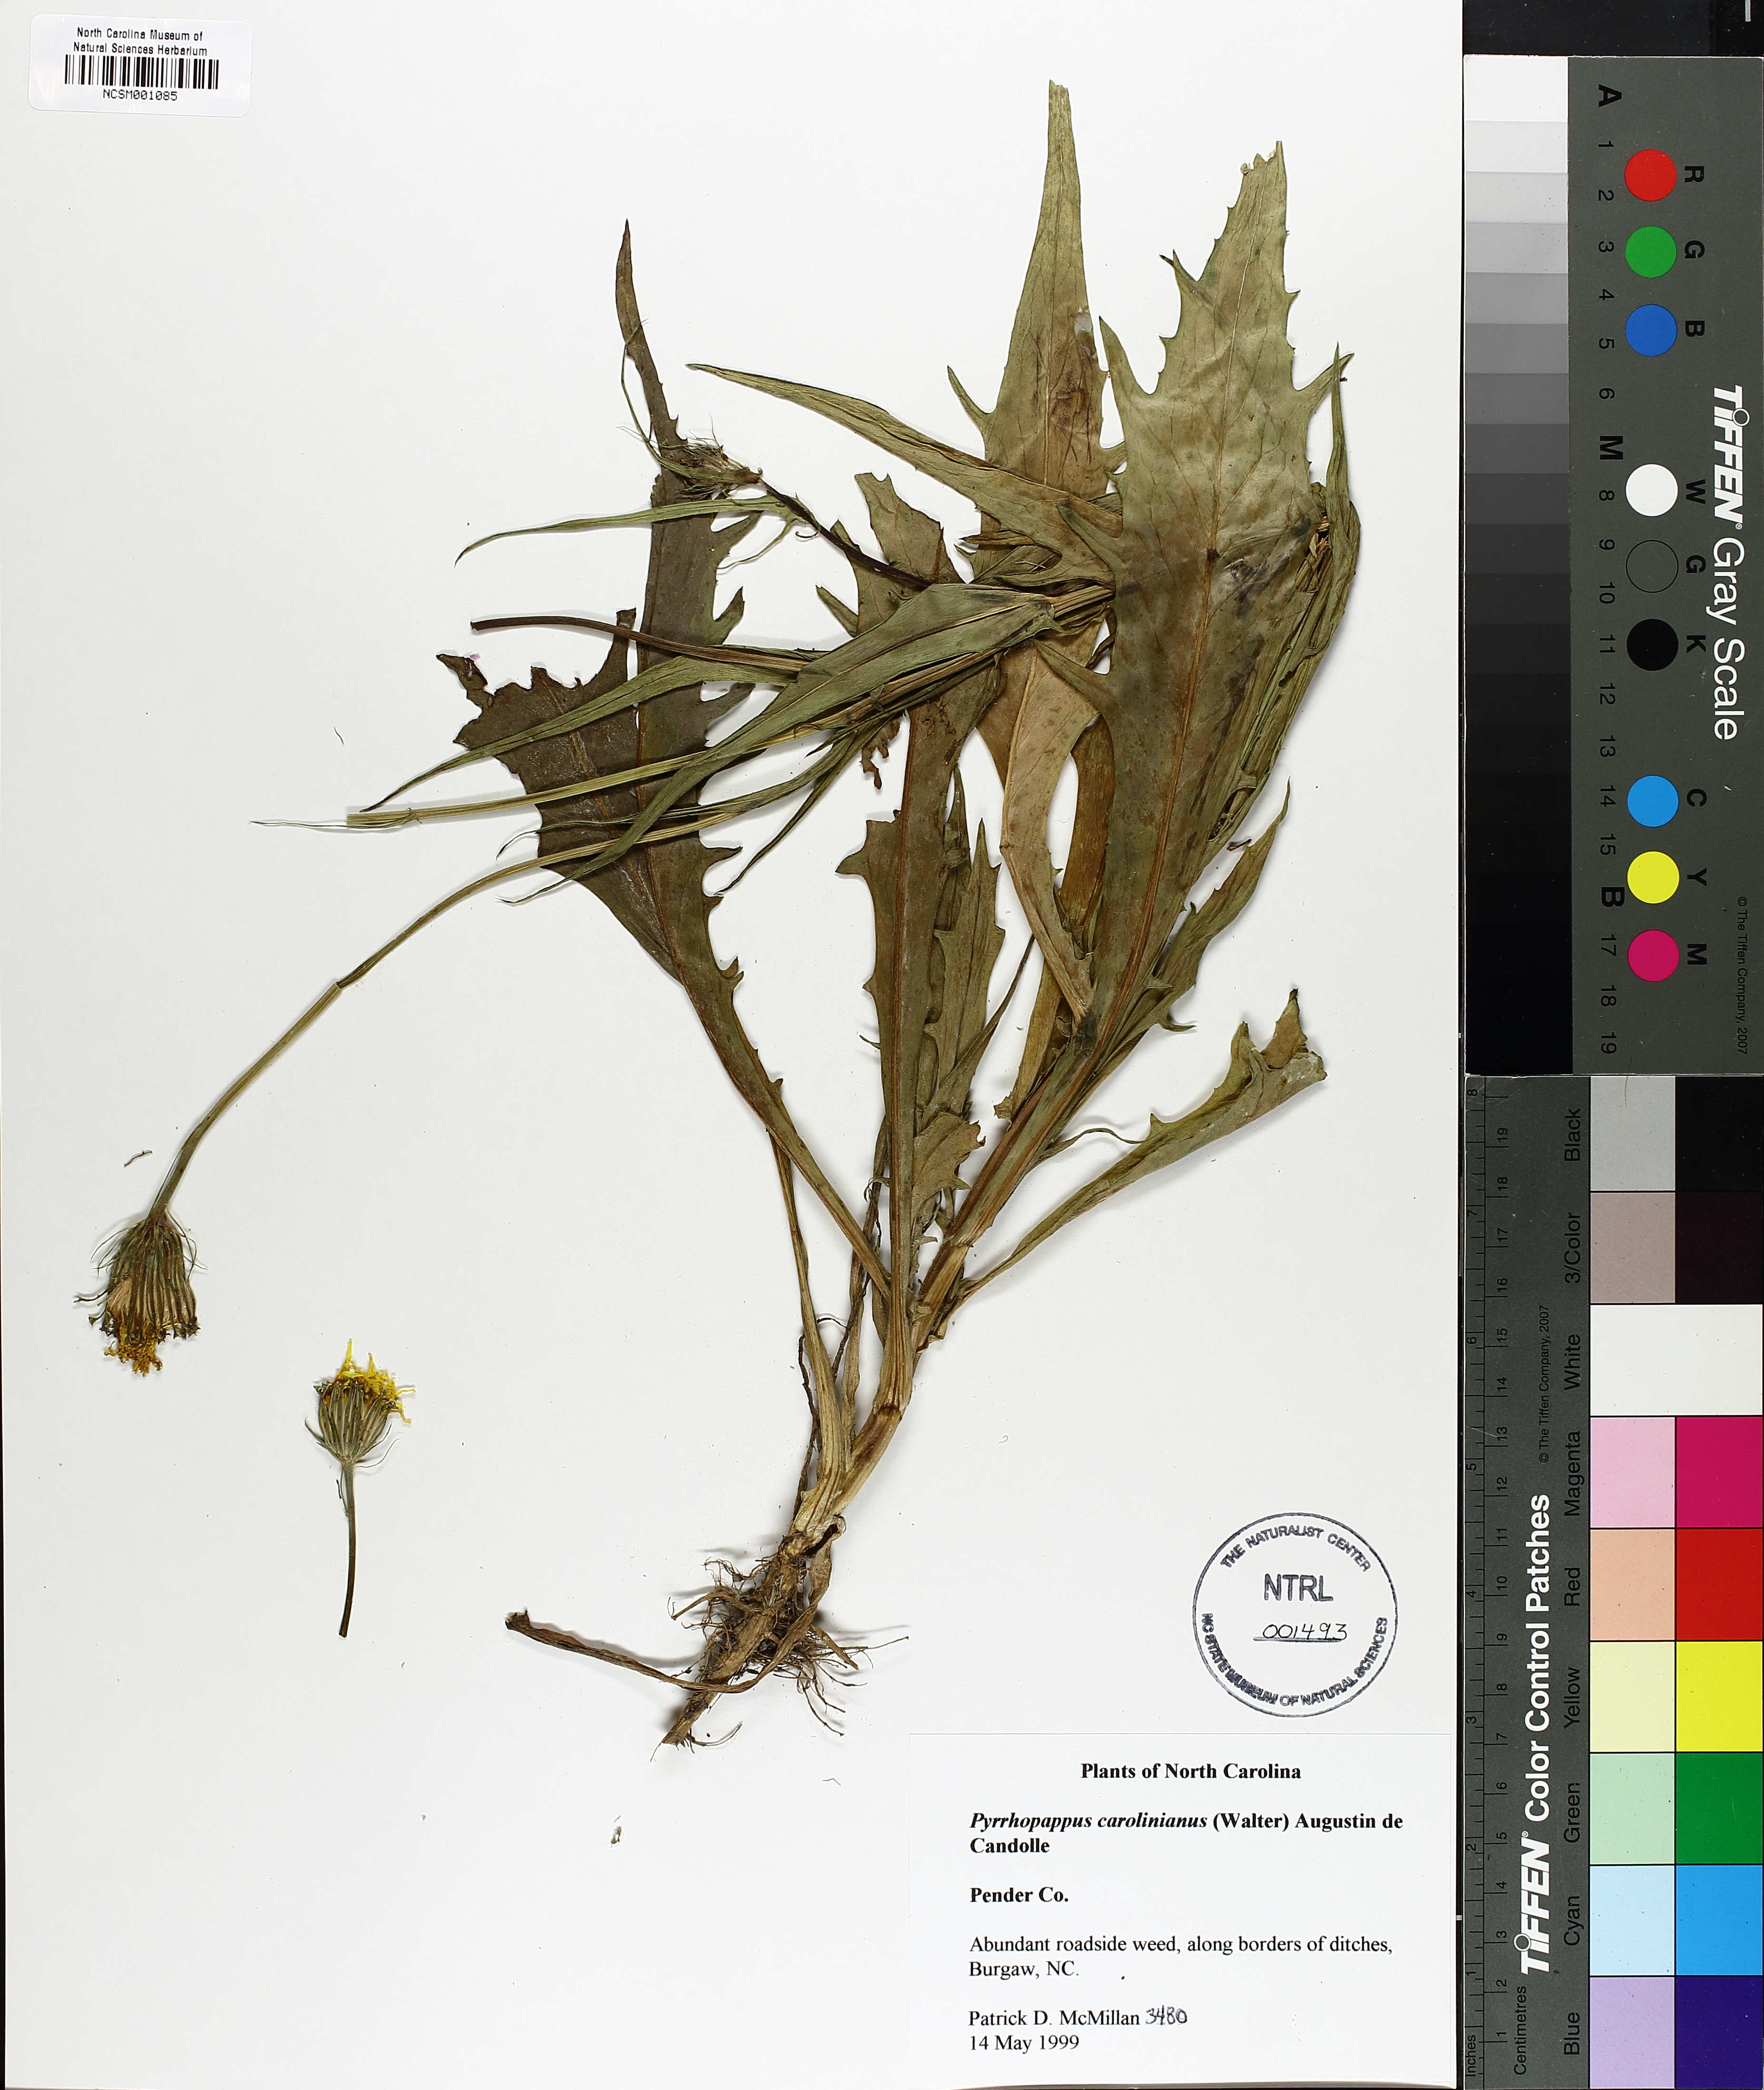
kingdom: Plantae
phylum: Tracheophyta
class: Magnoliopsida
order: Asterales
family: Asteraceae
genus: Pyrrhopappus
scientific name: Pyrrhopappus carolinianus
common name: Carolina desert-chicory
